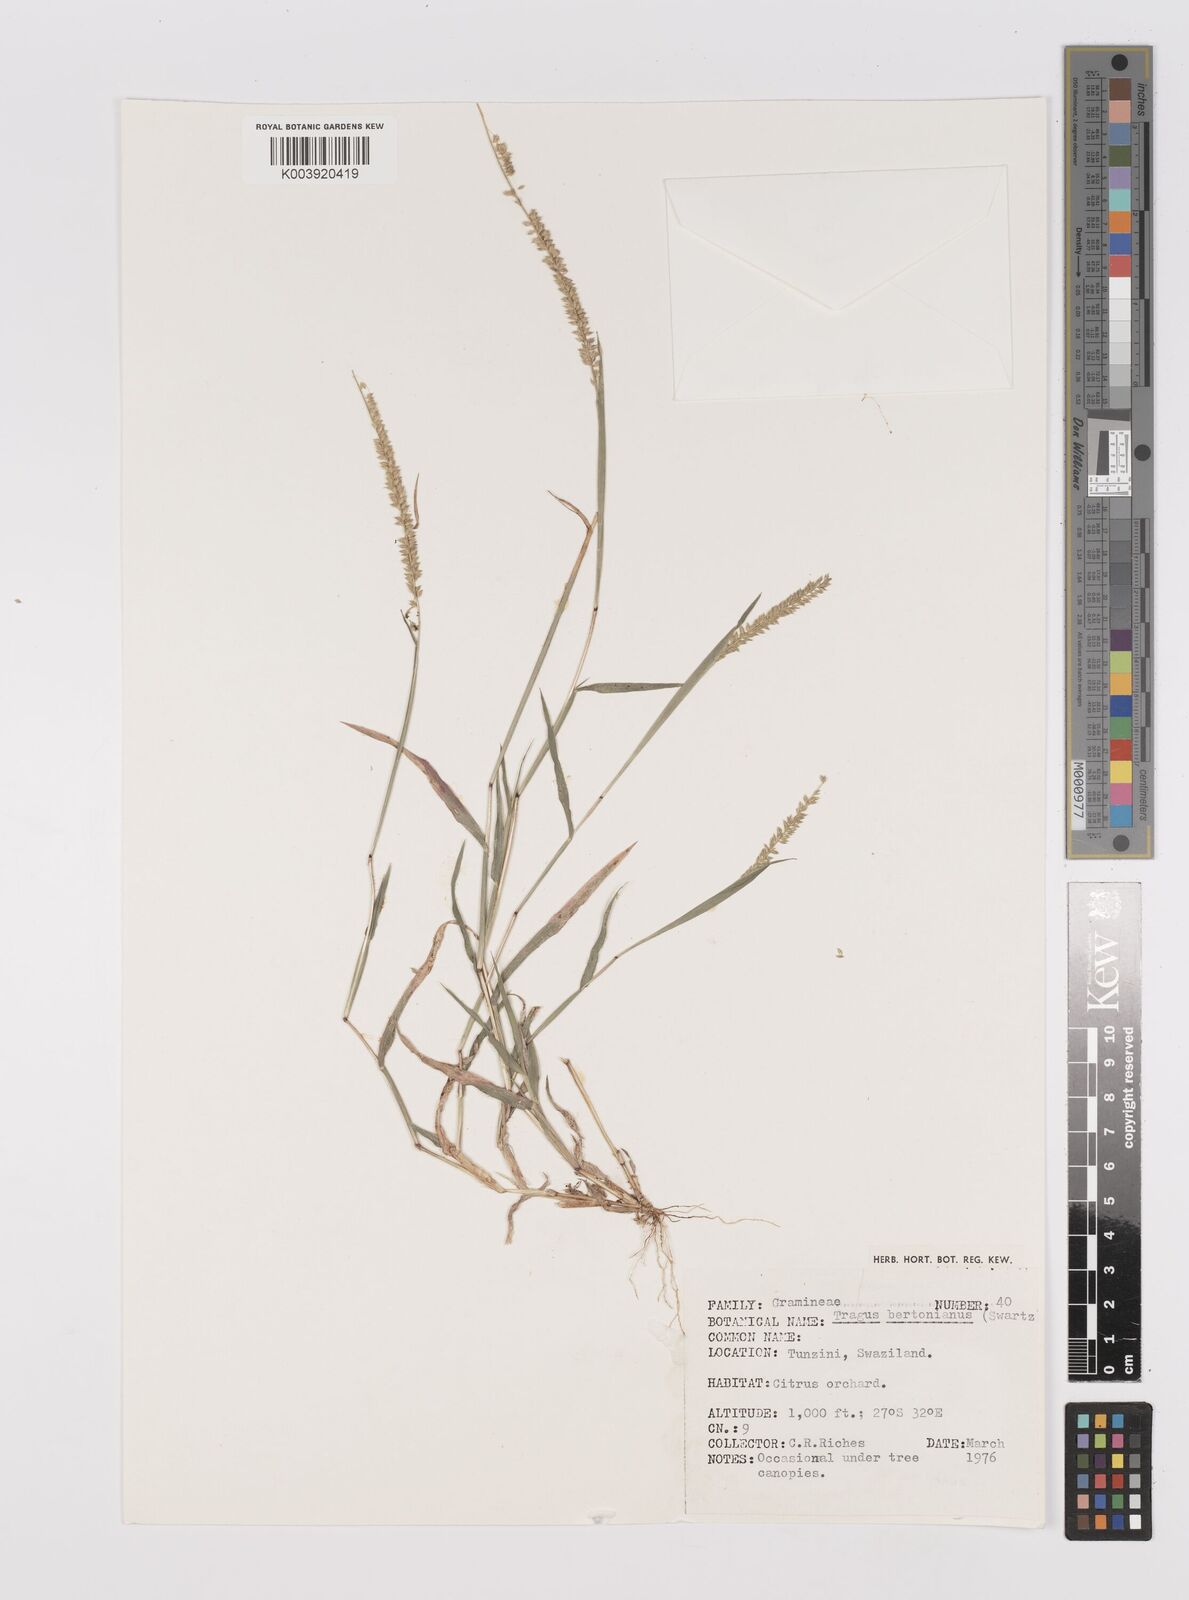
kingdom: Plantae
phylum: Tracheophyta
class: Liliopsida
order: Poales
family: Poaceae
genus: Tragus
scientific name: Tragus berteronianus
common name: African bur-grass
